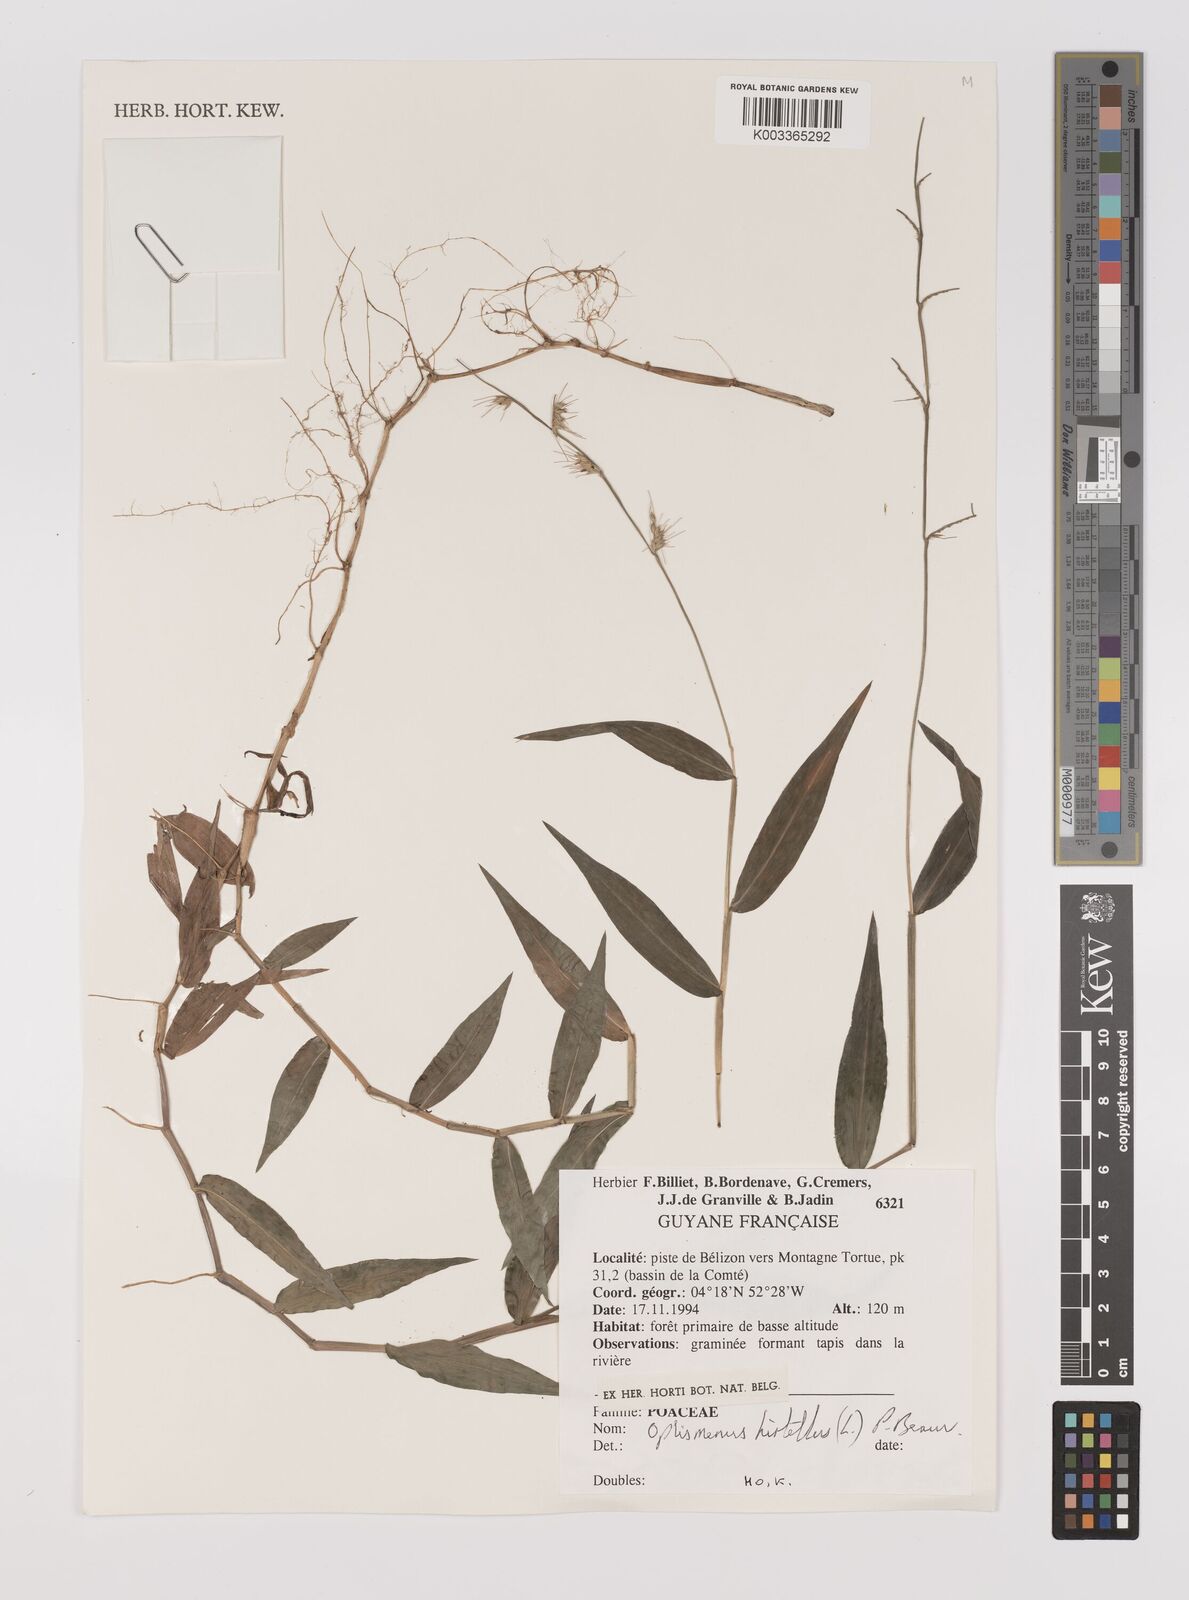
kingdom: Plantae
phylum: Tracheophyta
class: Liliopsida
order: Poales
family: Poaceae
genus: Oplismenus
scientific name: Oplismenus hirtellus
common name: Basketgrass
